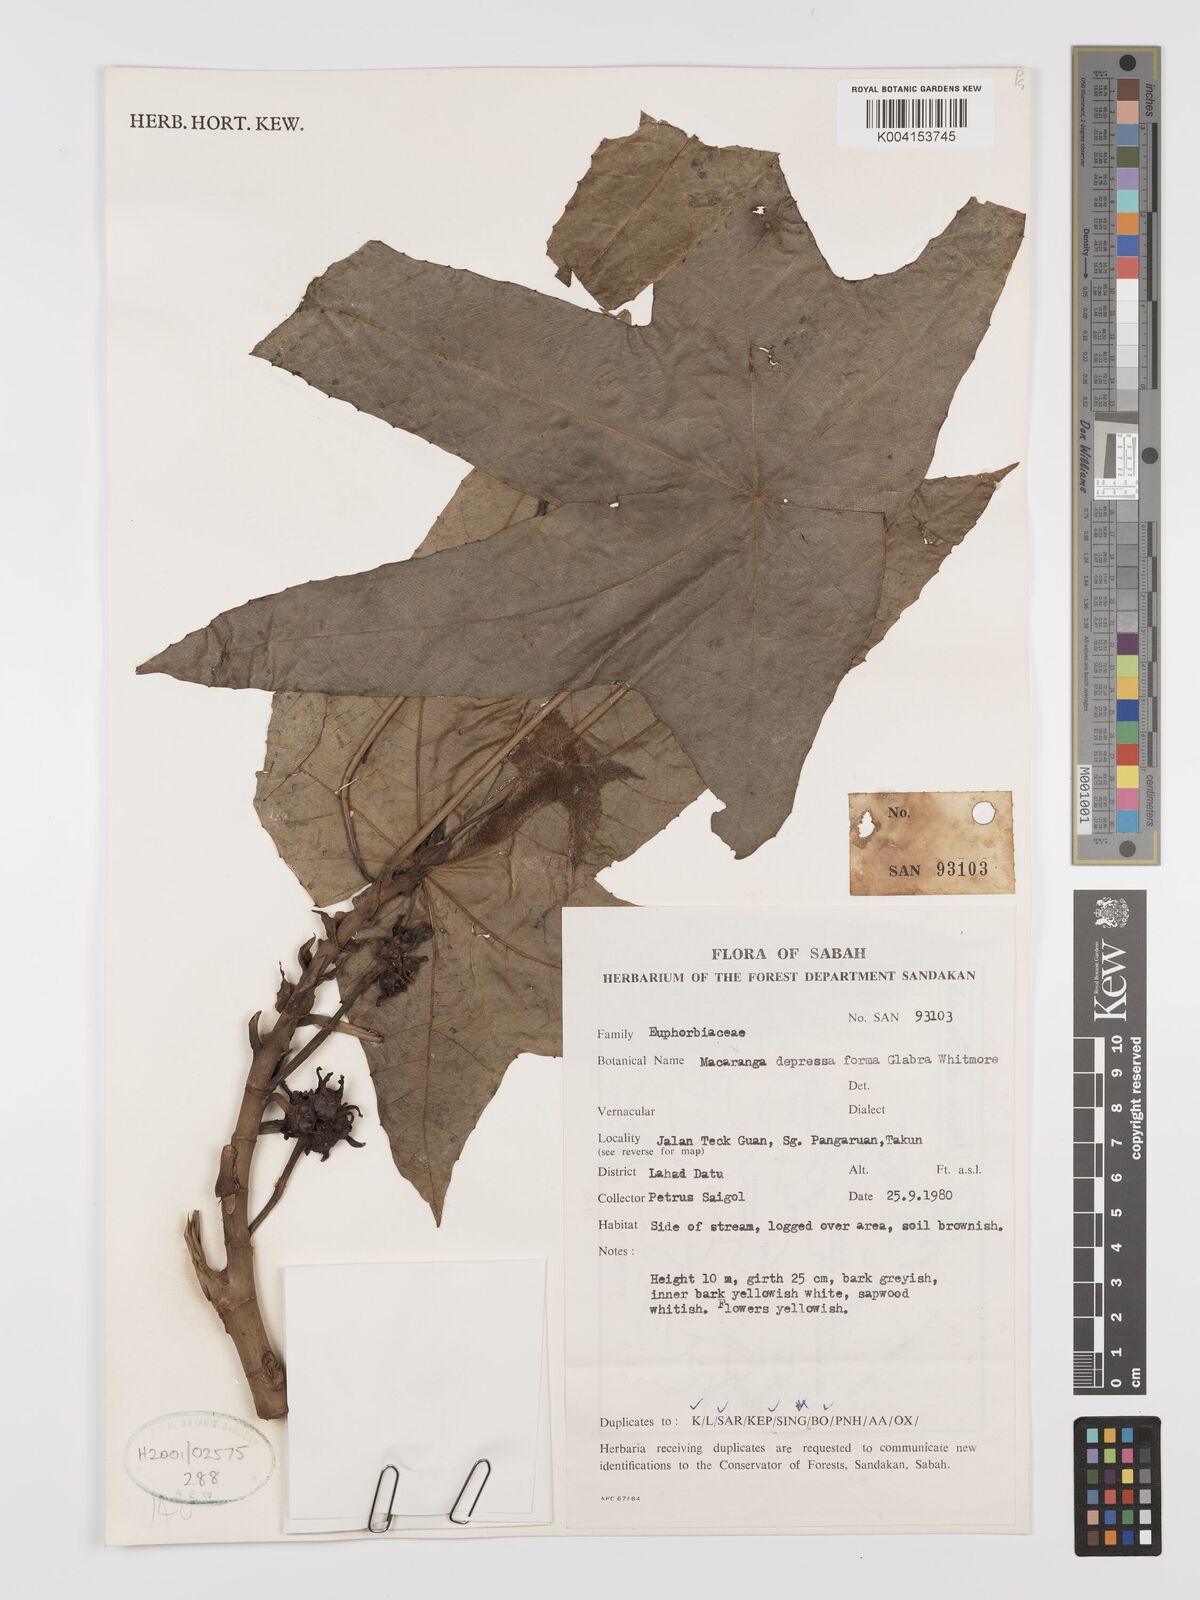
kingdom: Plantae
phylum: Tracheophyta
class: Magnoliopsida
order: Malpighiales
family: Euphorbiaceae
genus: Macaranga
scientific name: Macaranga depressa
